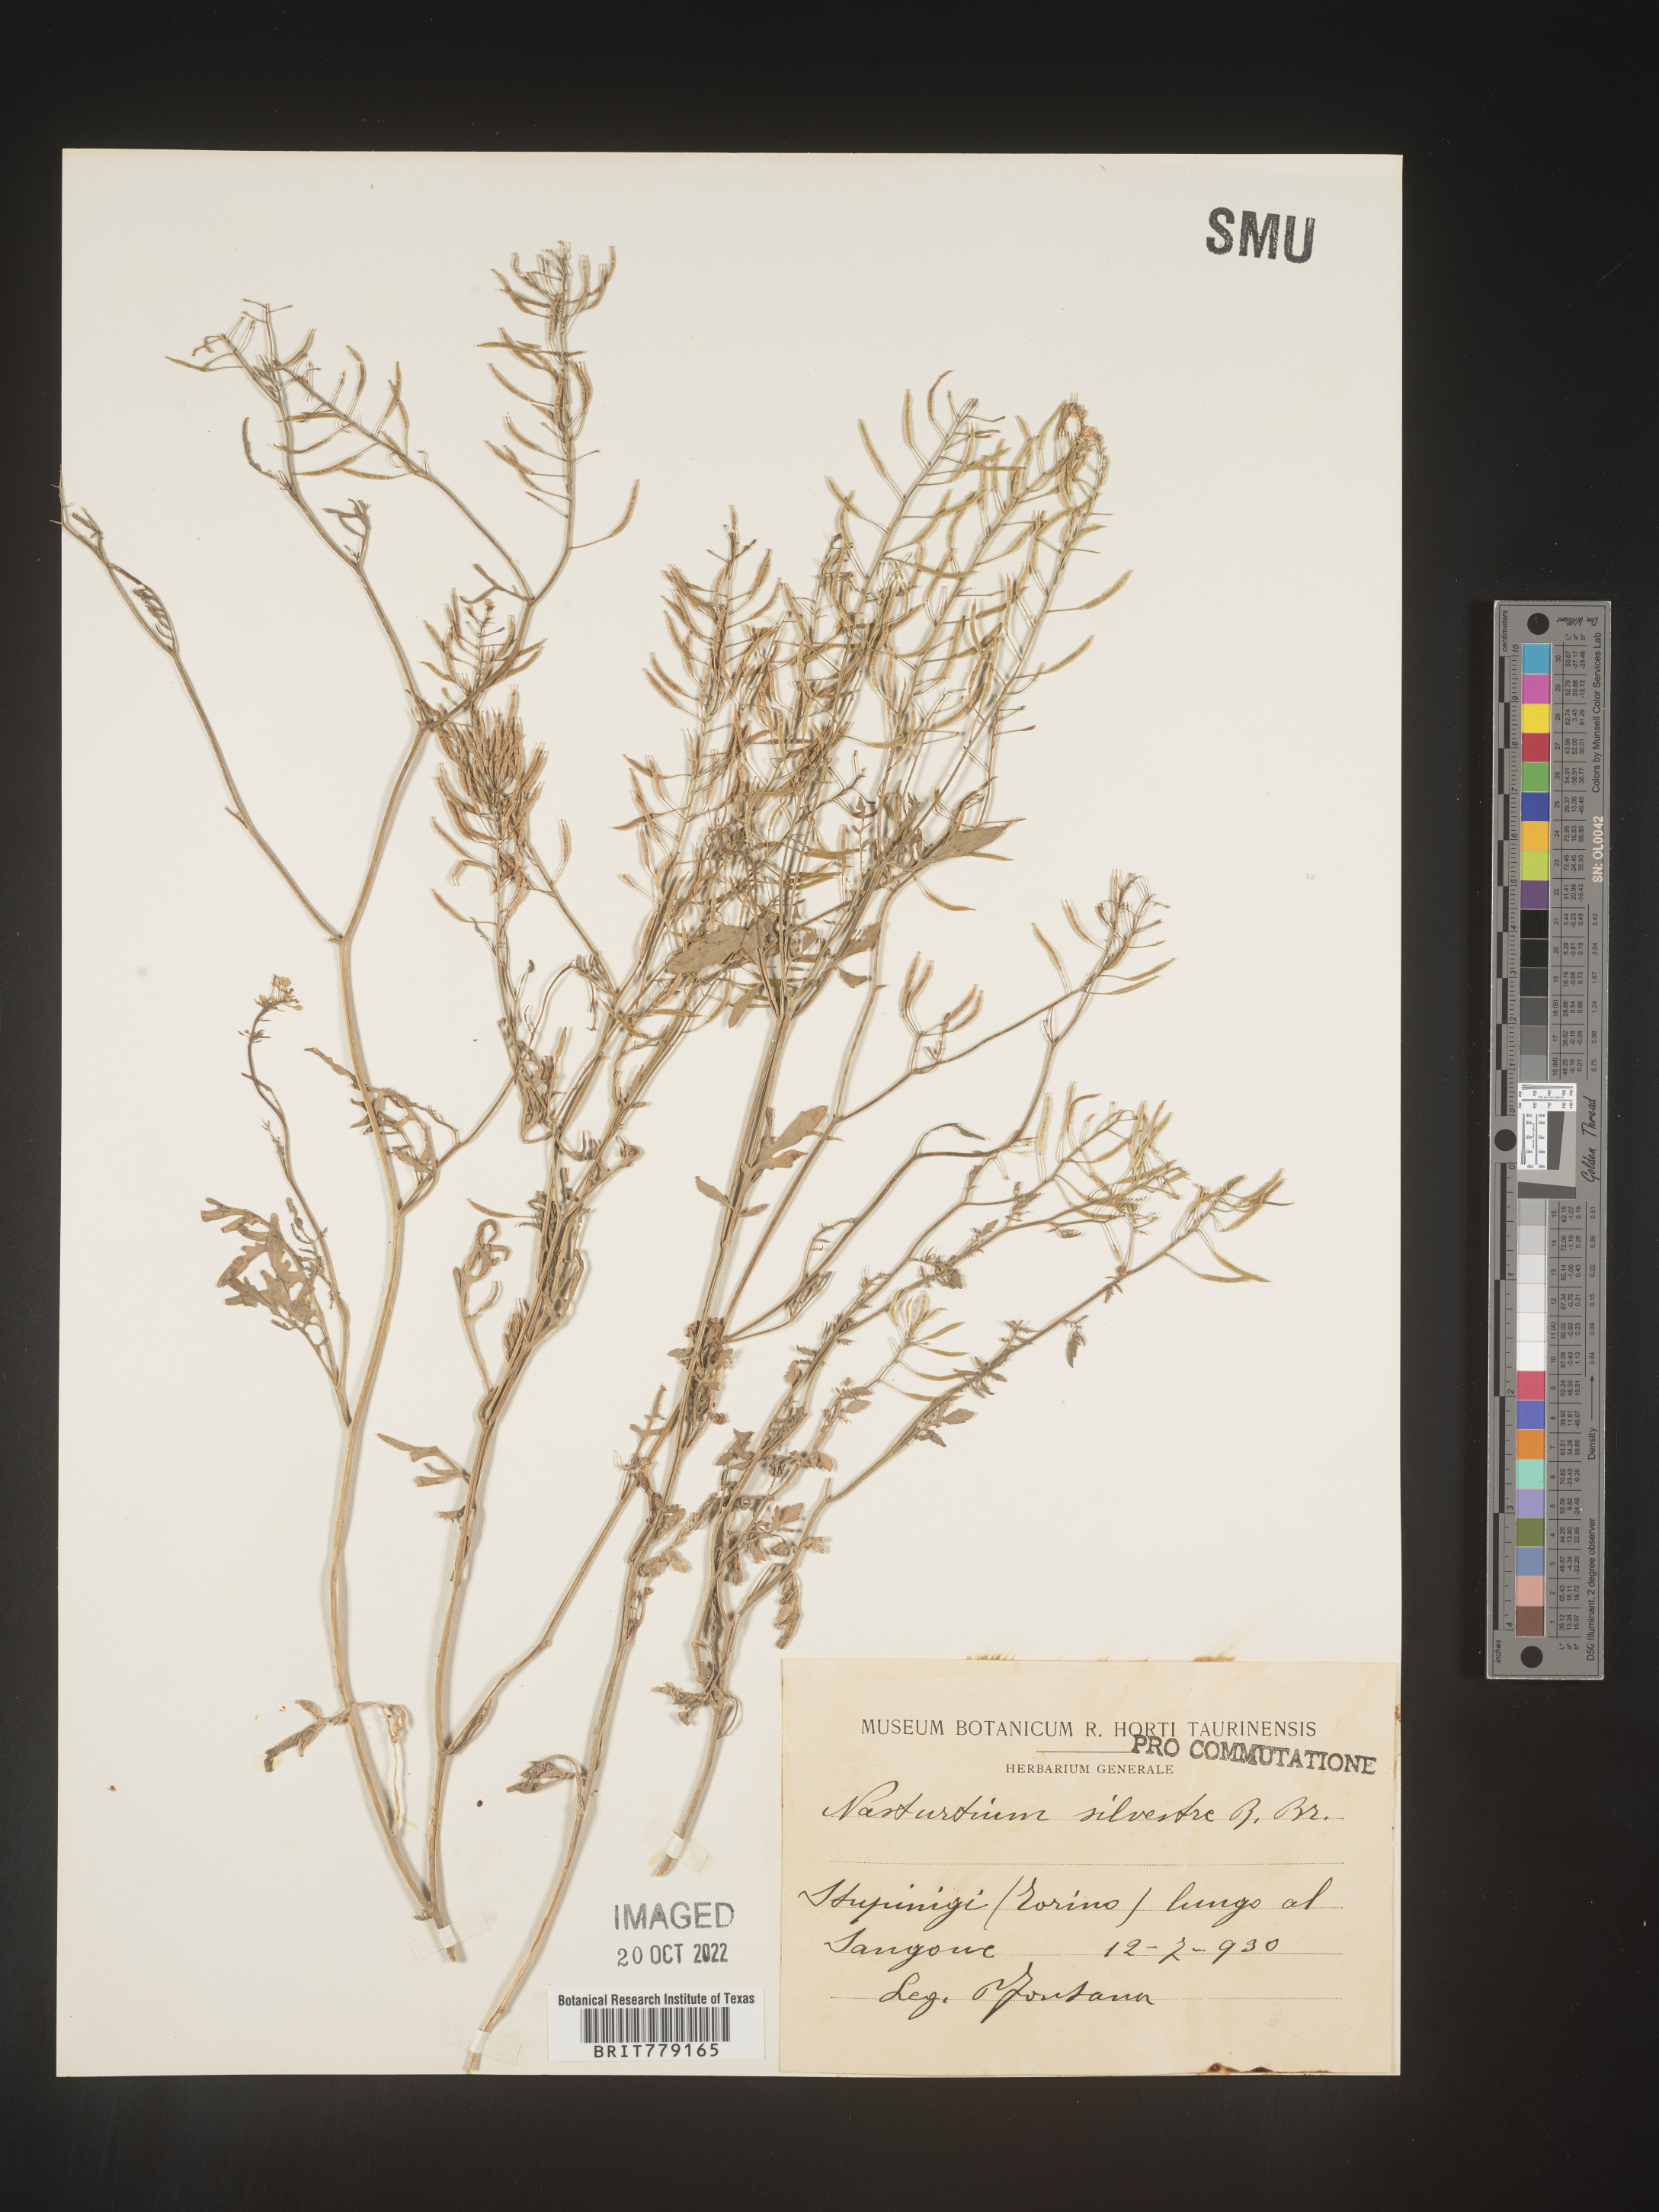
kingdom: Plantae
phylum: Tracheophyta
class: Magnoliopsida
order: Brassicales
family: Brassicaceae
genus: Rorippa
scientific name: Rorippa
